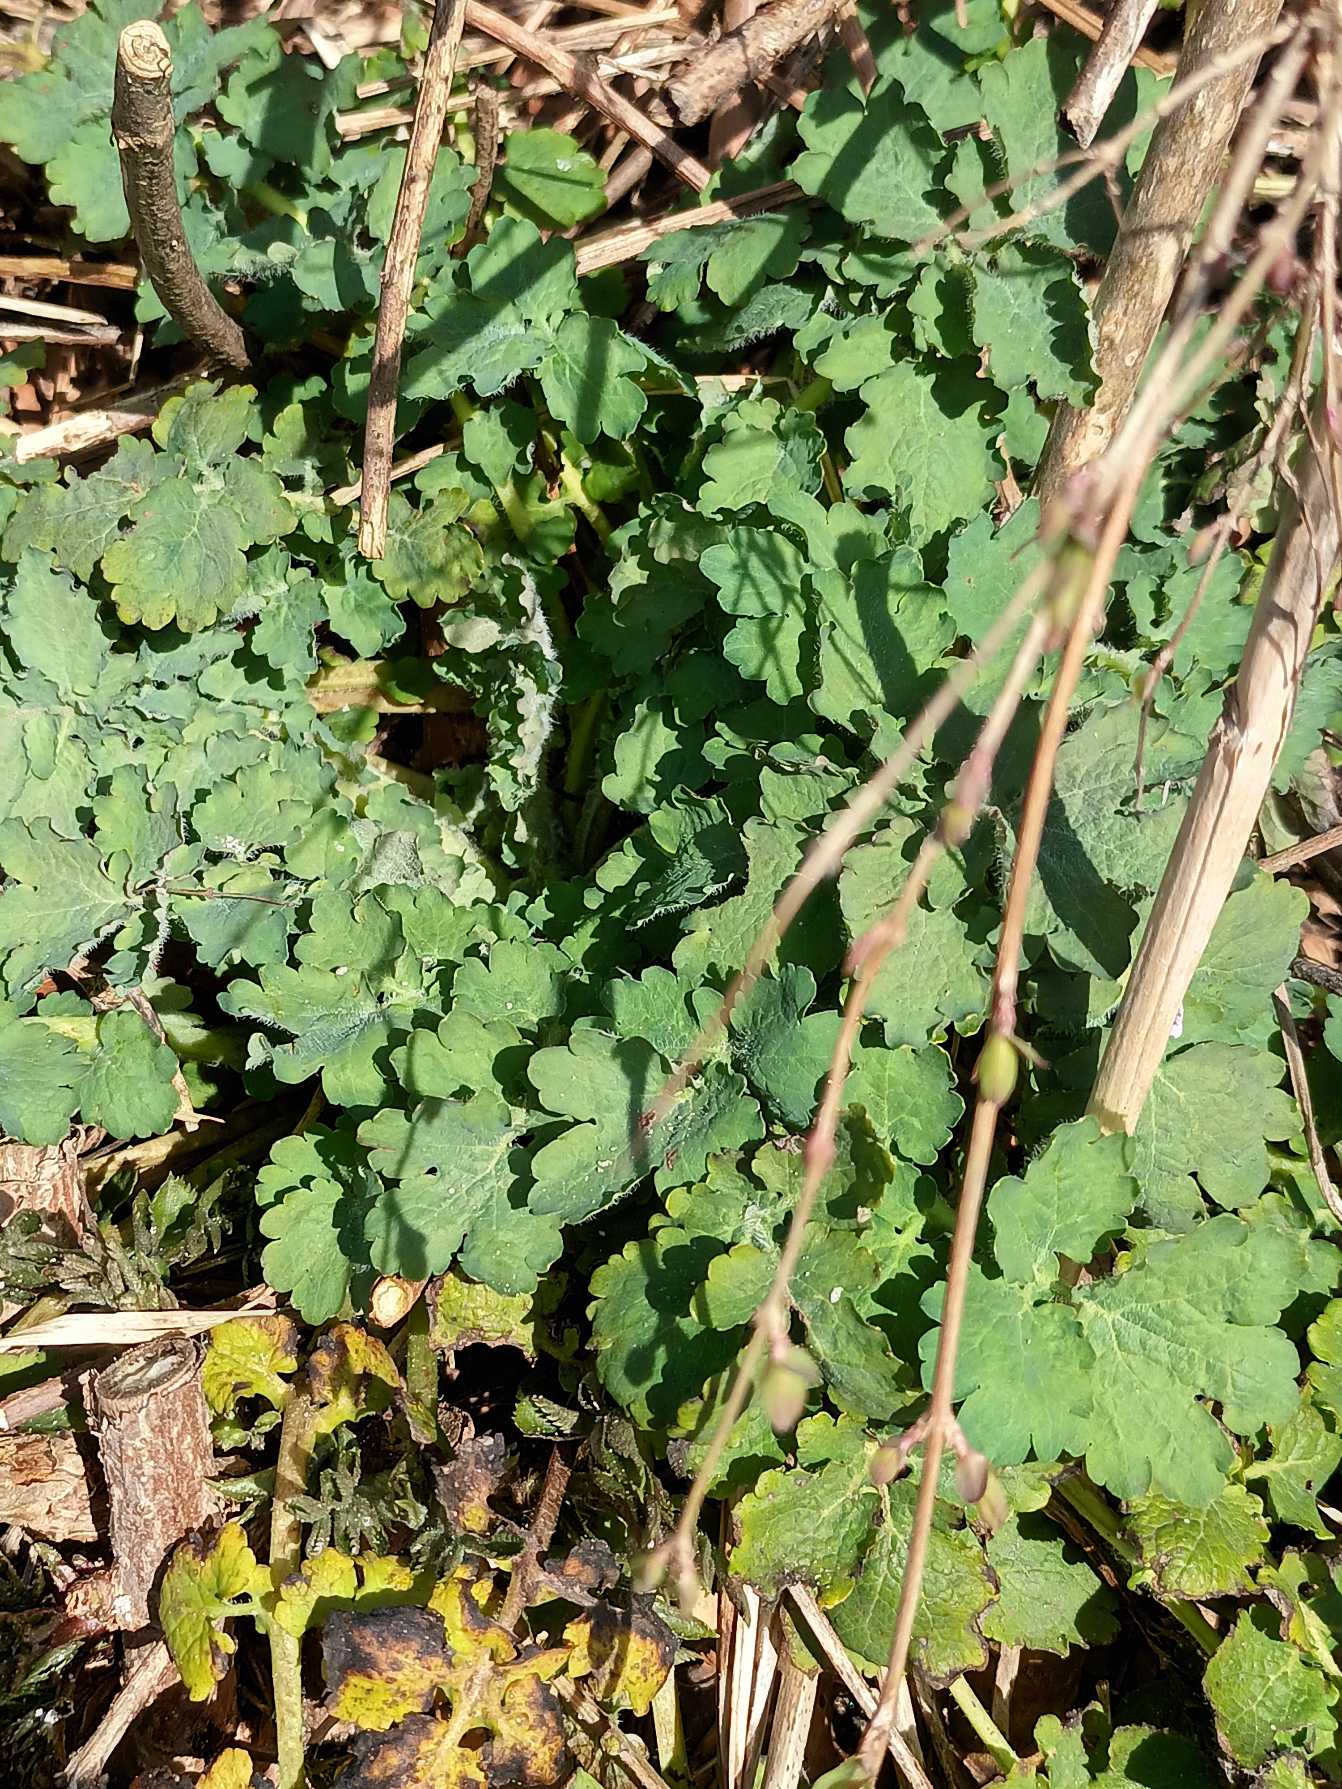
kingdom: Plantae
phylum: Tracheophyta
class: Magnoliopsida
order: Ranunculales
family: Papaveraceae
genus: Chelidonium
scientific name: Chelidonium majus
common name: Svaleurt
